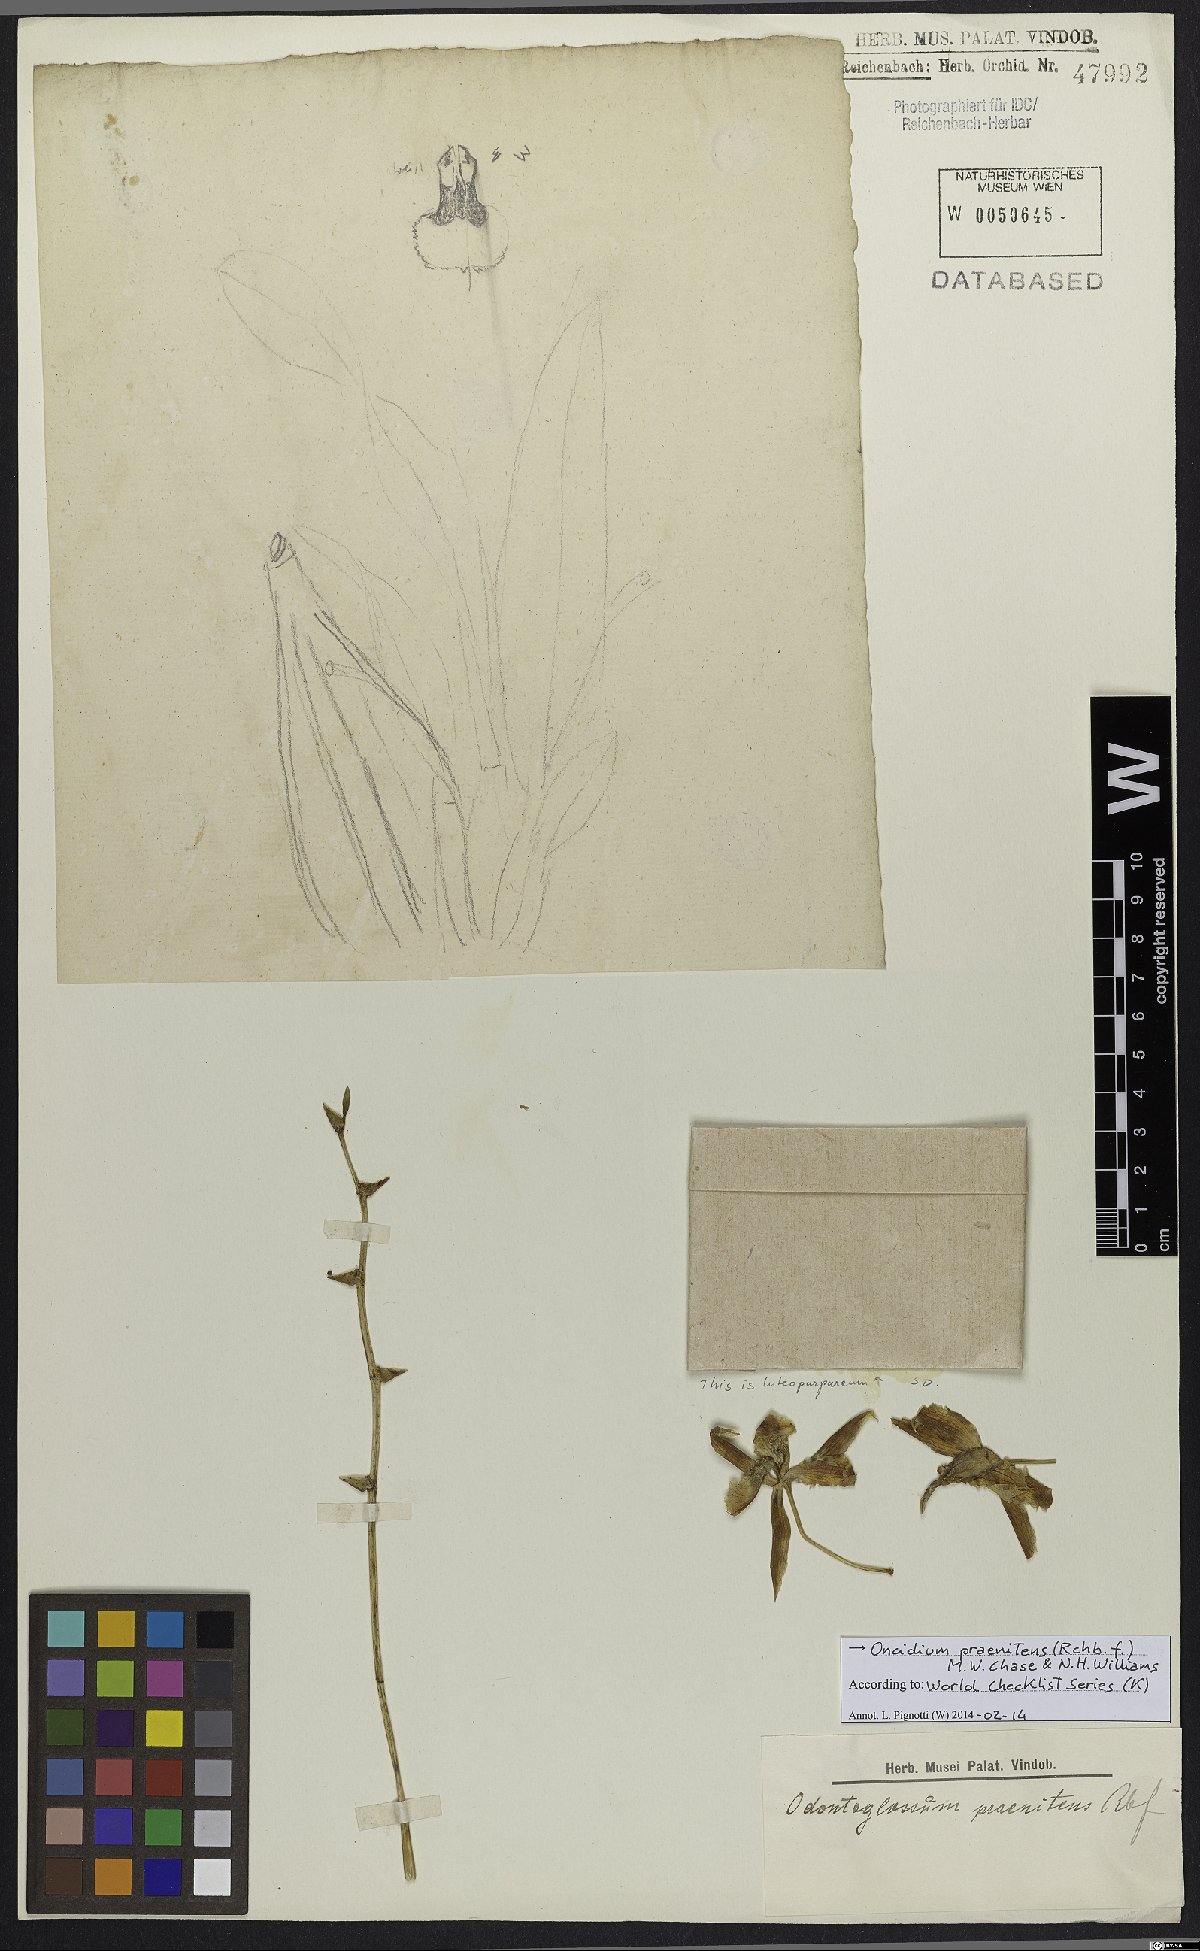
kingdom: Plantae
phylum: Tracheophyta
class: Liliopsida
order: Asparagales
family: Orchidaceae
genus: Oncidium
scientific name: Oncidium praenitens
